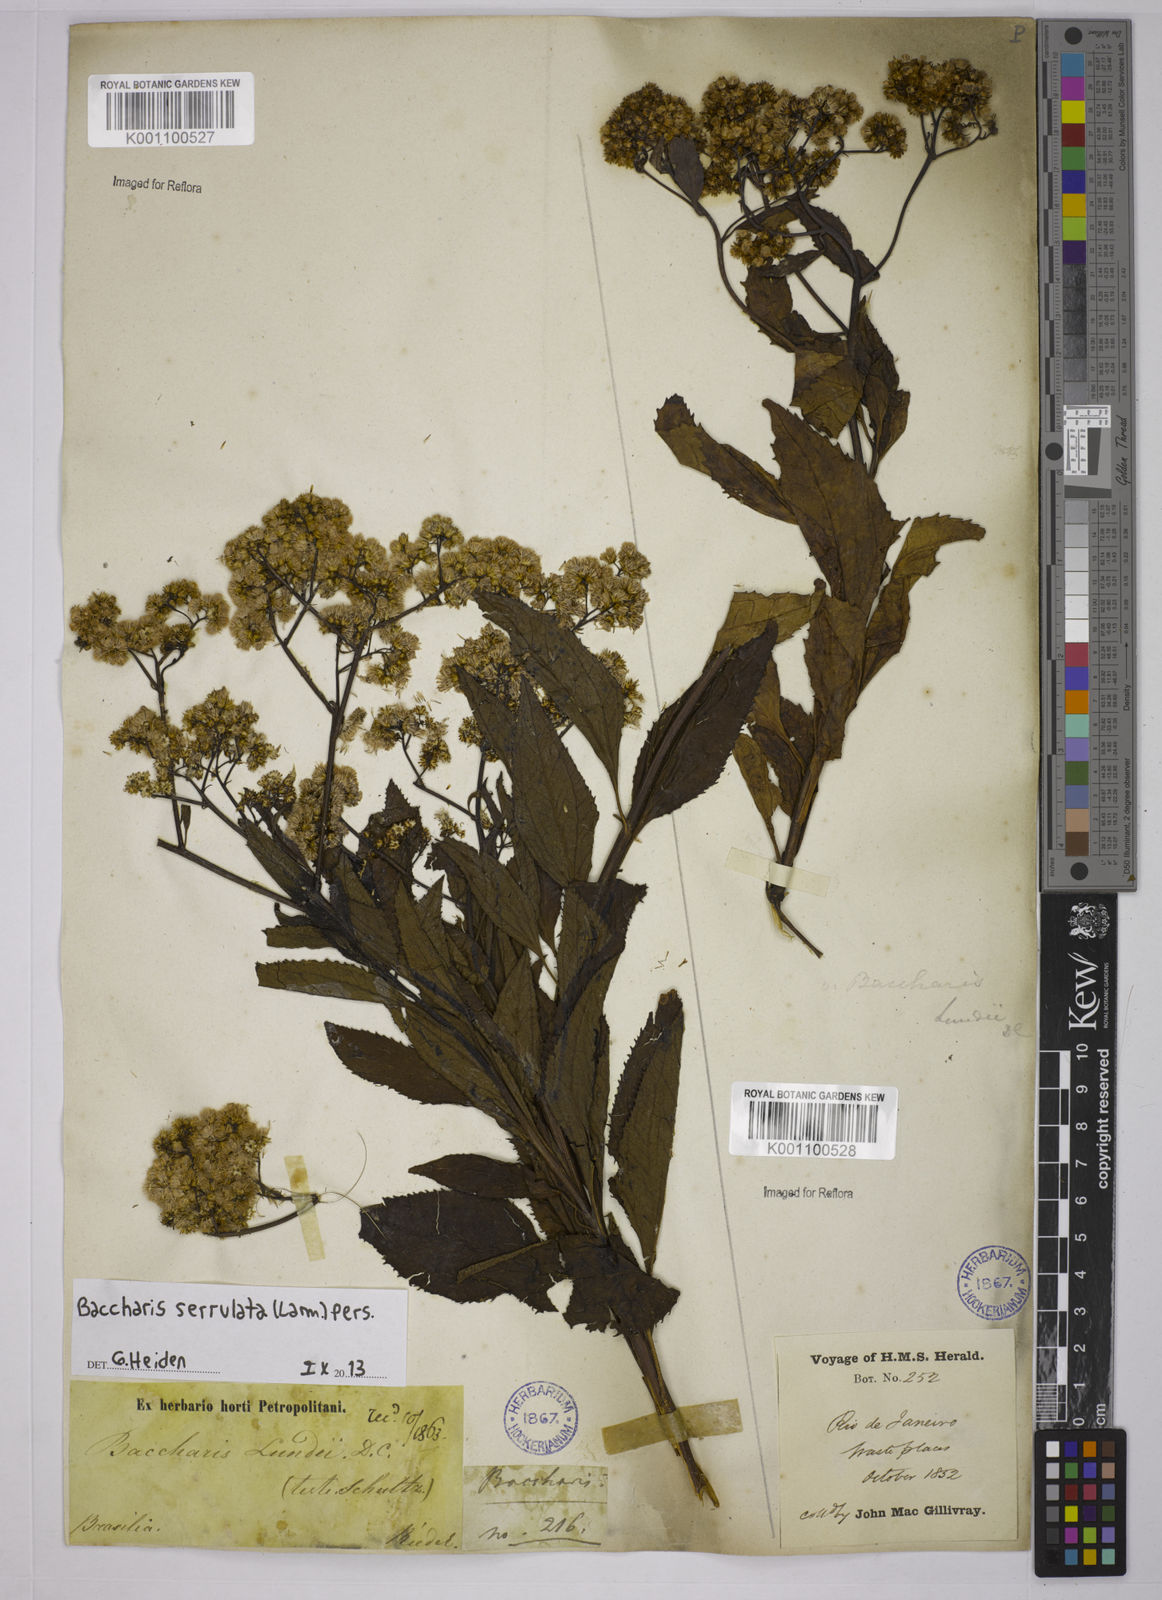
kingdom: Plantae
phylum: Tracheophyta
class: Magnoliopsida
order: Asterales
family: Asteraceae
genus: Baccharis
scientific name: Baccharis serrulata
